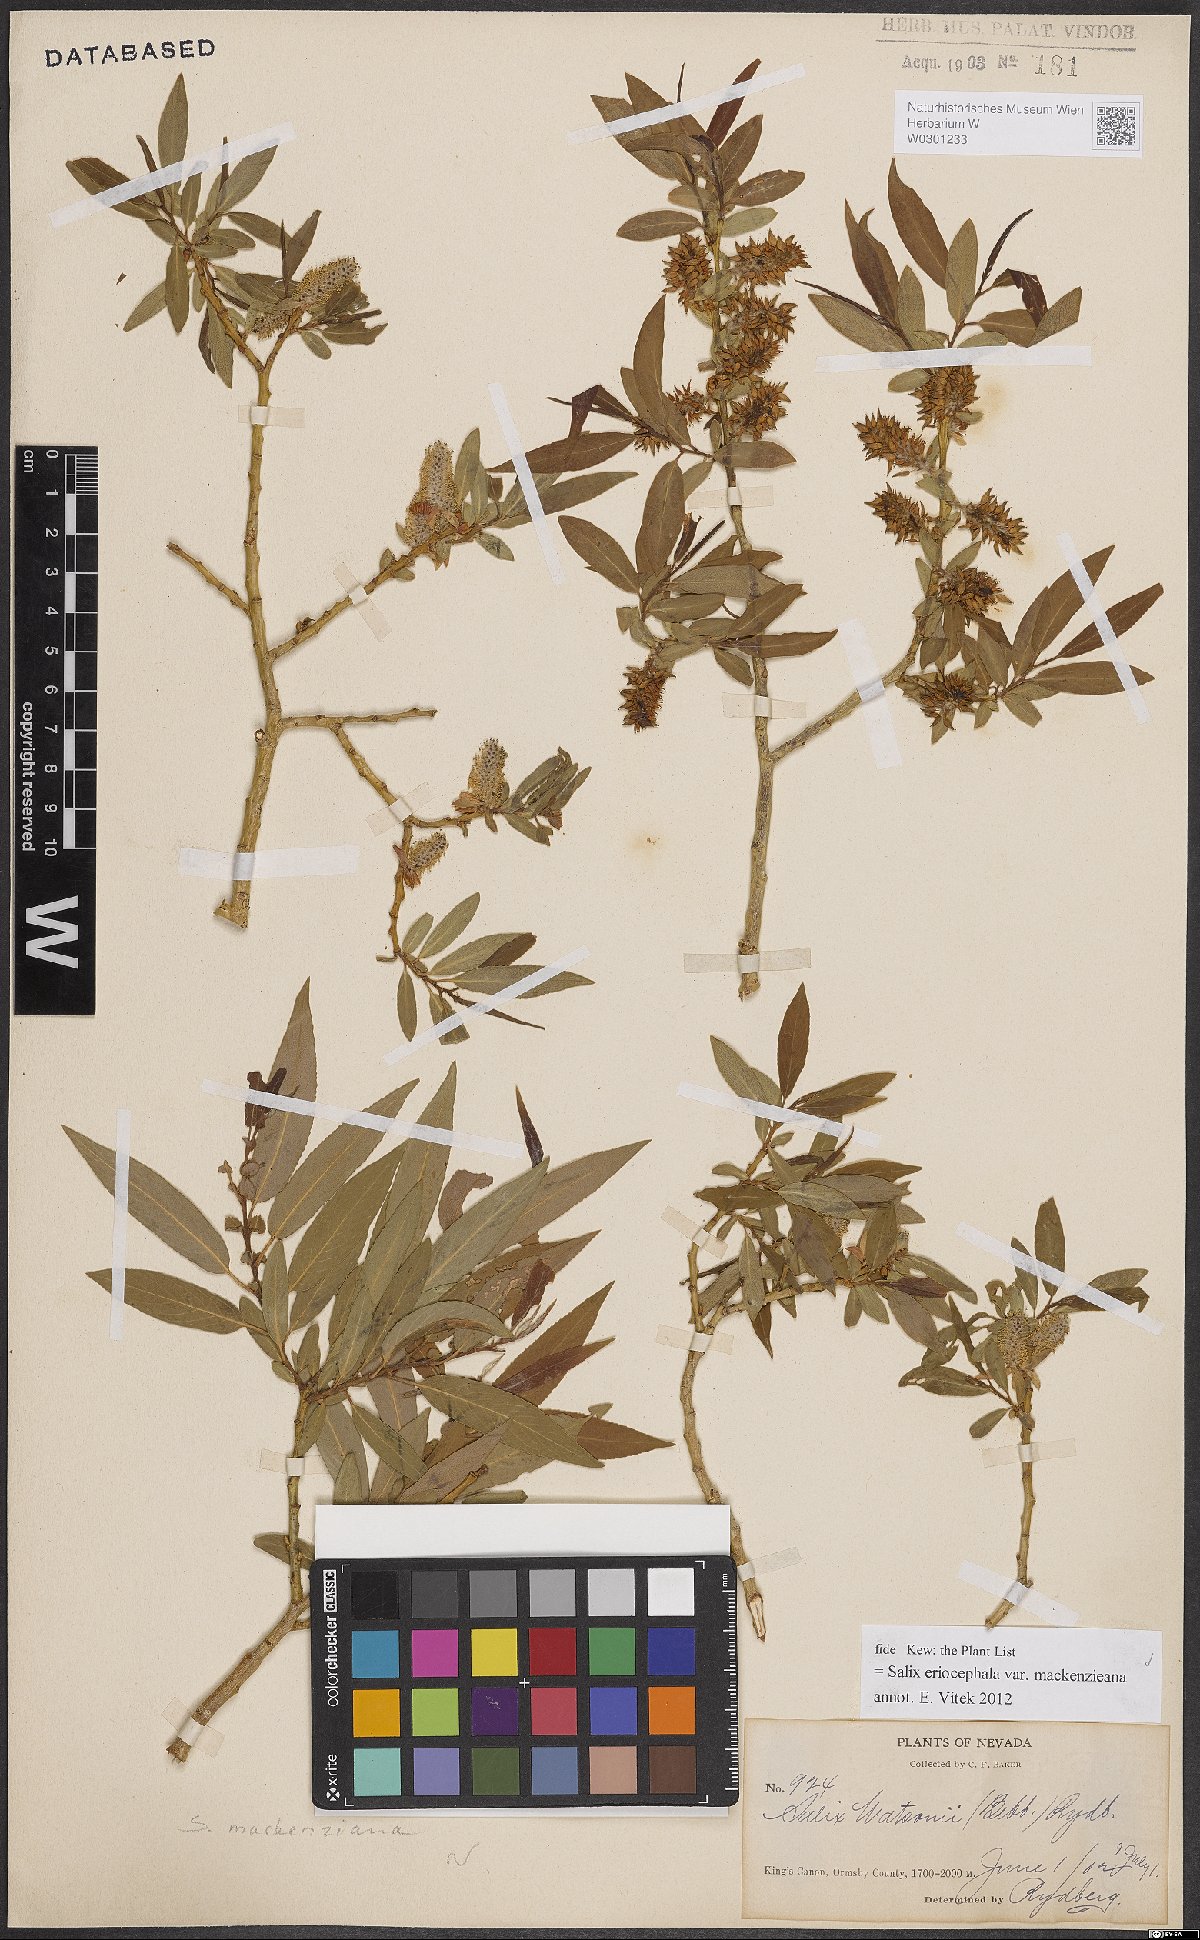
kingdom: Plantae
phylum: Tracheophyta
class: Magnoliopsida
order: Malpighiales
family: Salicaceae
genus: Salix
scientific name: Salix prolixa
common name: Mackenzie's willow
